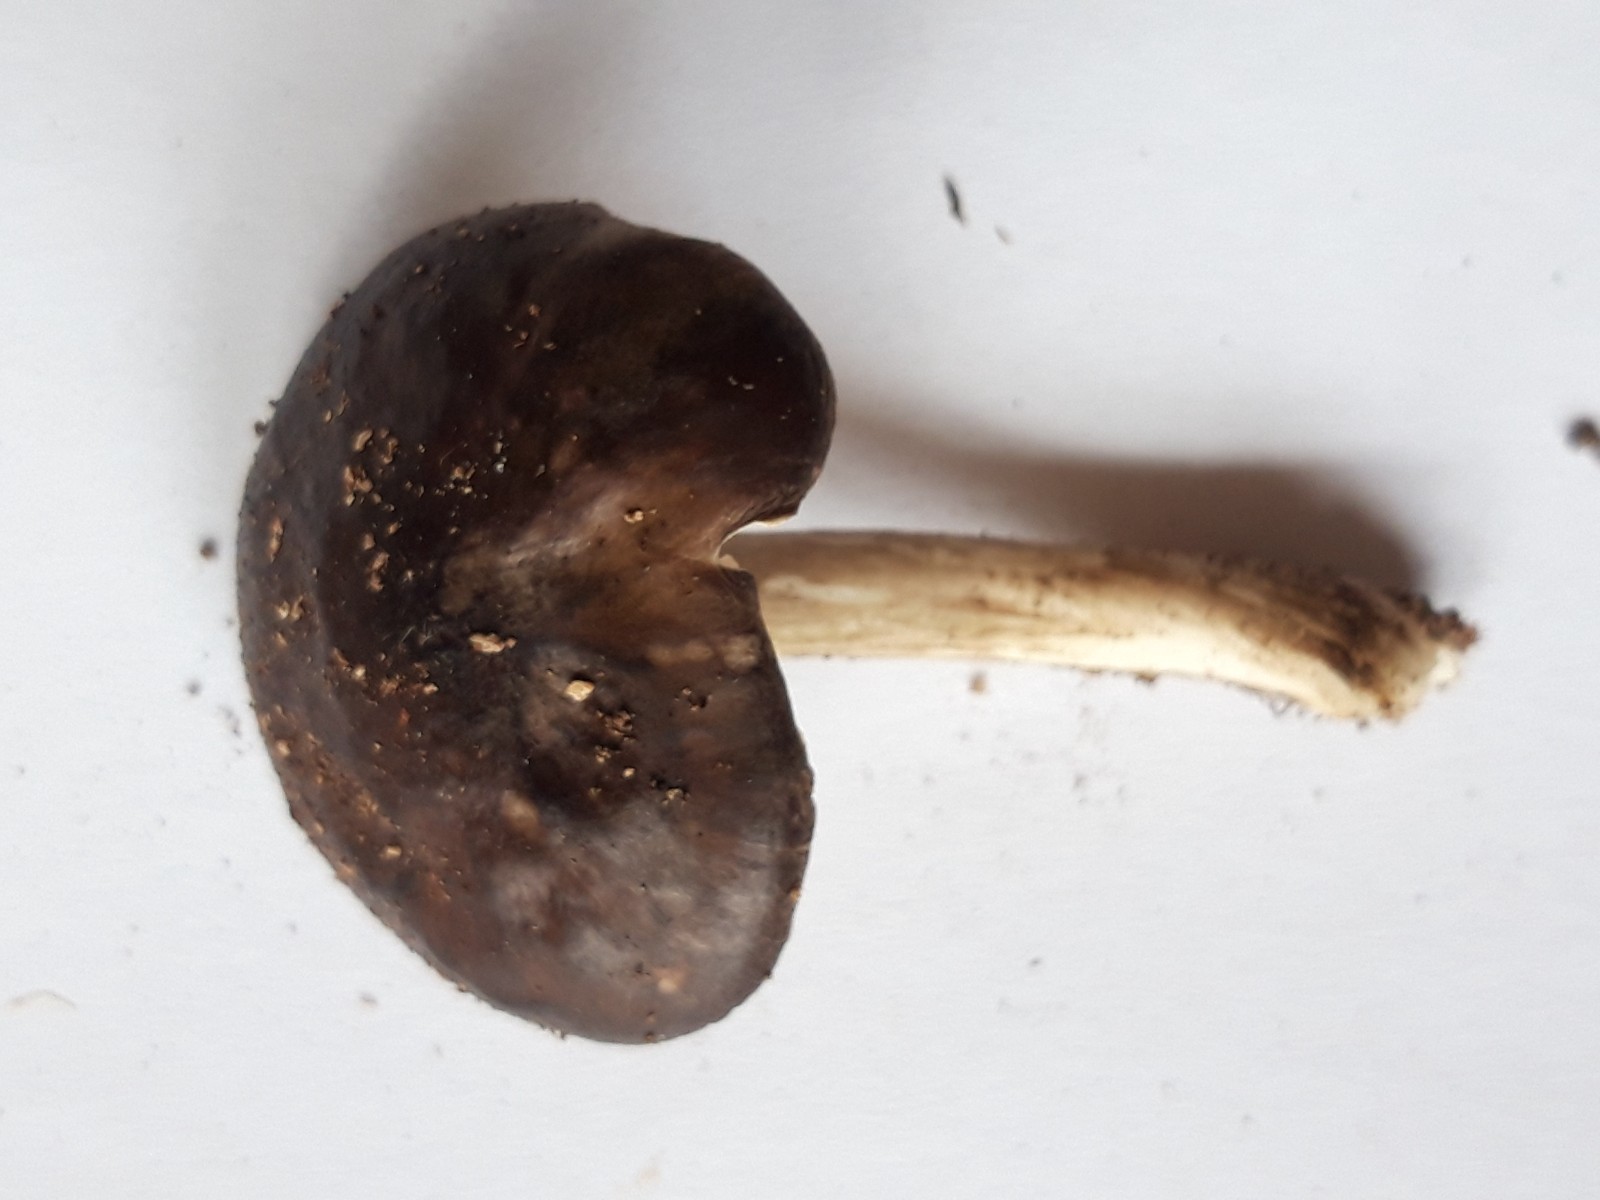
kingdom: Fungi
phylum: Basidiomycota
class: Agaricomycetes
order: Agaricales
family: Pluteaceae
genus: Pluteus
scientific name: Pluteus cervinus
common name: sodfarvet skærmhat
